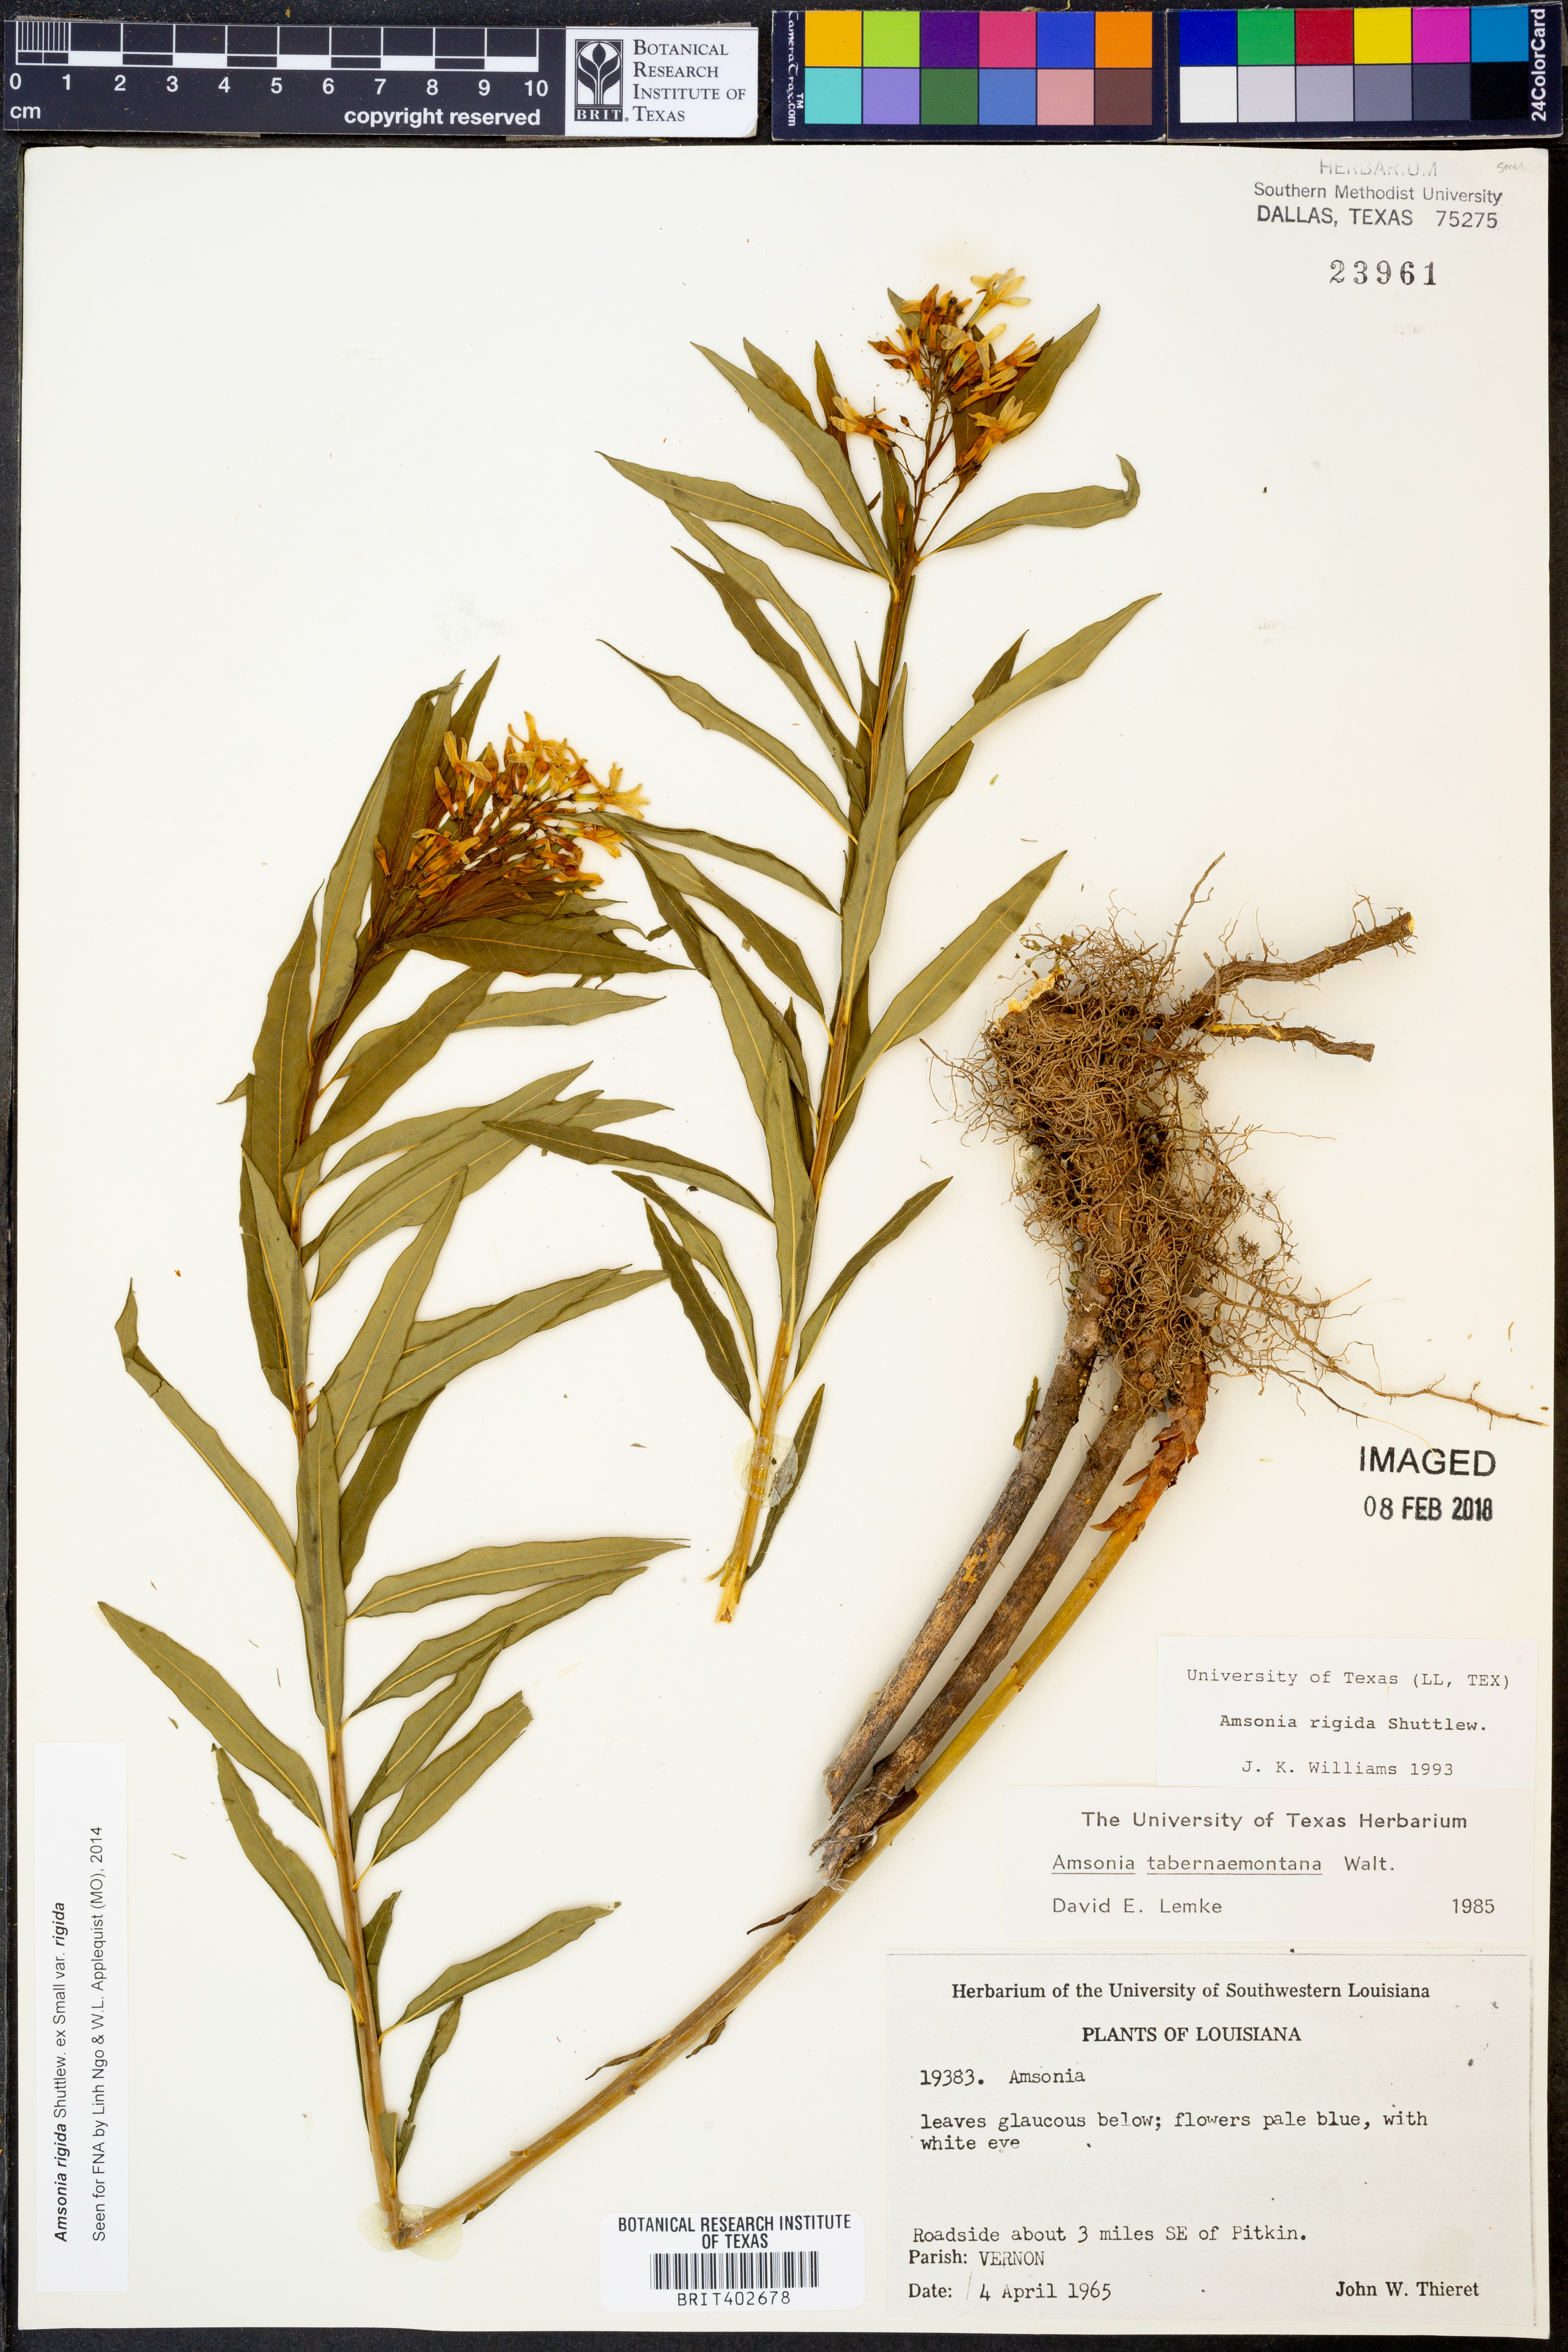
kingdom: Plantae
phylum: Tracheophyta
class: Magnoliopsida
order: Gentianales
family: Apocynaceae
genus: Amsonia
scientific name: Amsonia rigida
